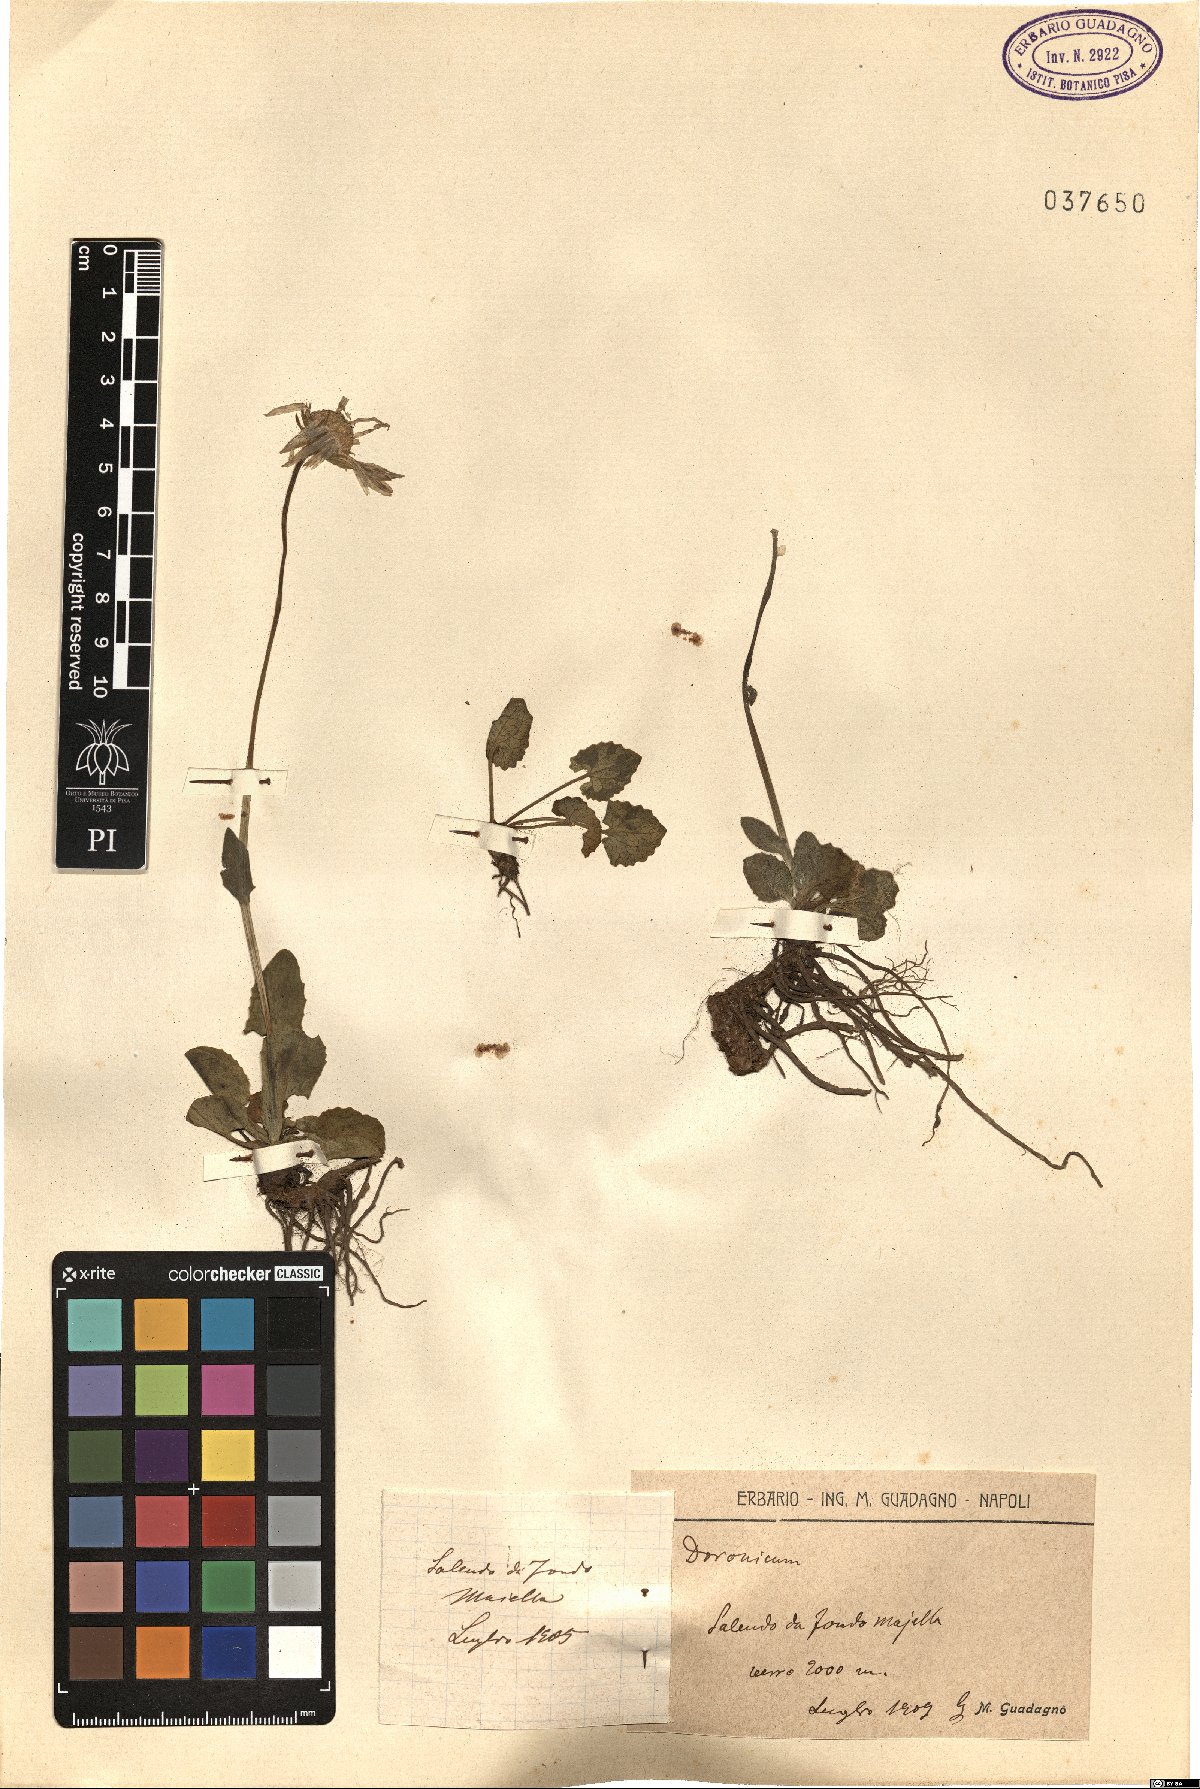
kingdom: Plantae
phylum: Tracheophyta
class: Magnoliopsida
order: Asterales
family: Asteraceae
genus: Doronicum
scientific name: Doronicum
